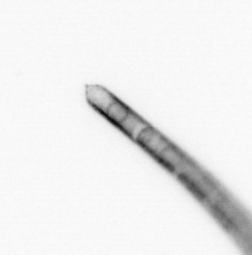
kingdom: Chromista
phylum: Ochrophyta
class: Bacillariophyceae
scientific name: Bacillariophyceae
